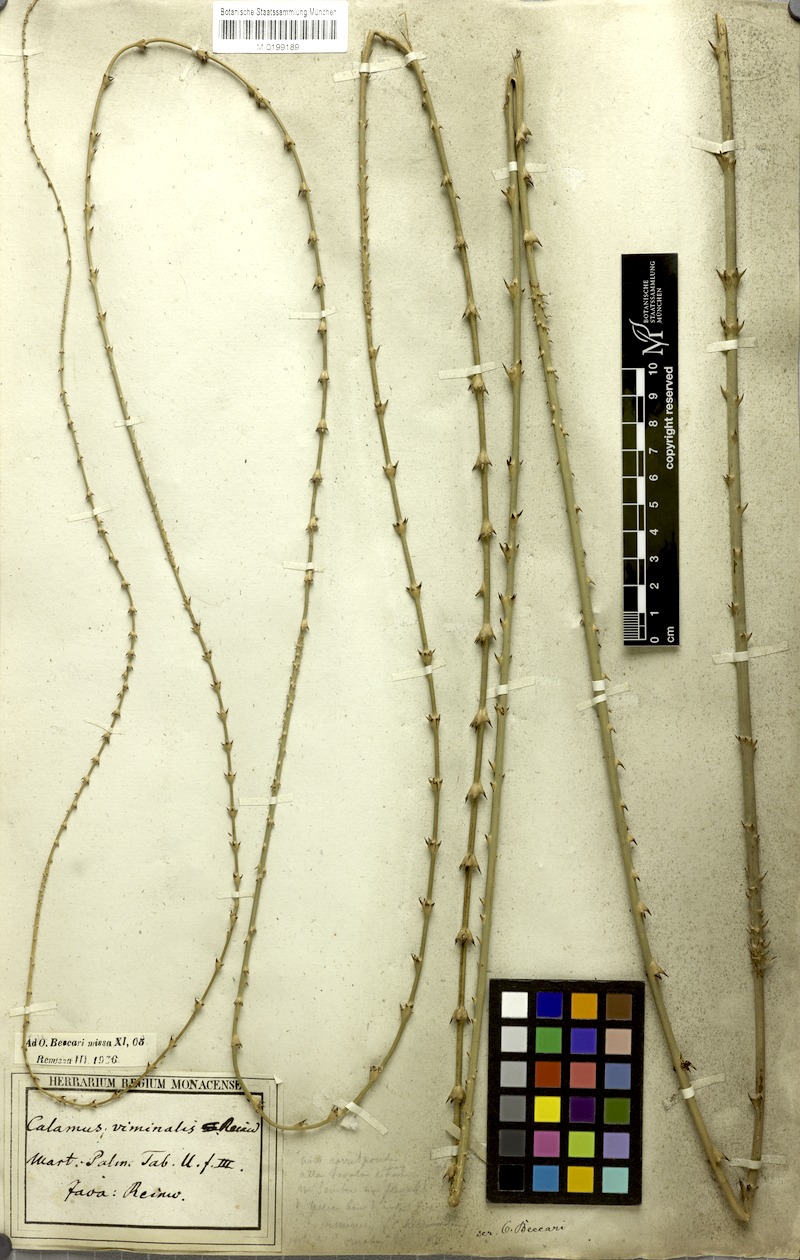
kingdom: Plantae
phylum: Tracheophyta
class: Liliopsida
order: Arecales
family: Arecaceae
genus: Calamus
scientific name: Calamus reinwardtii
